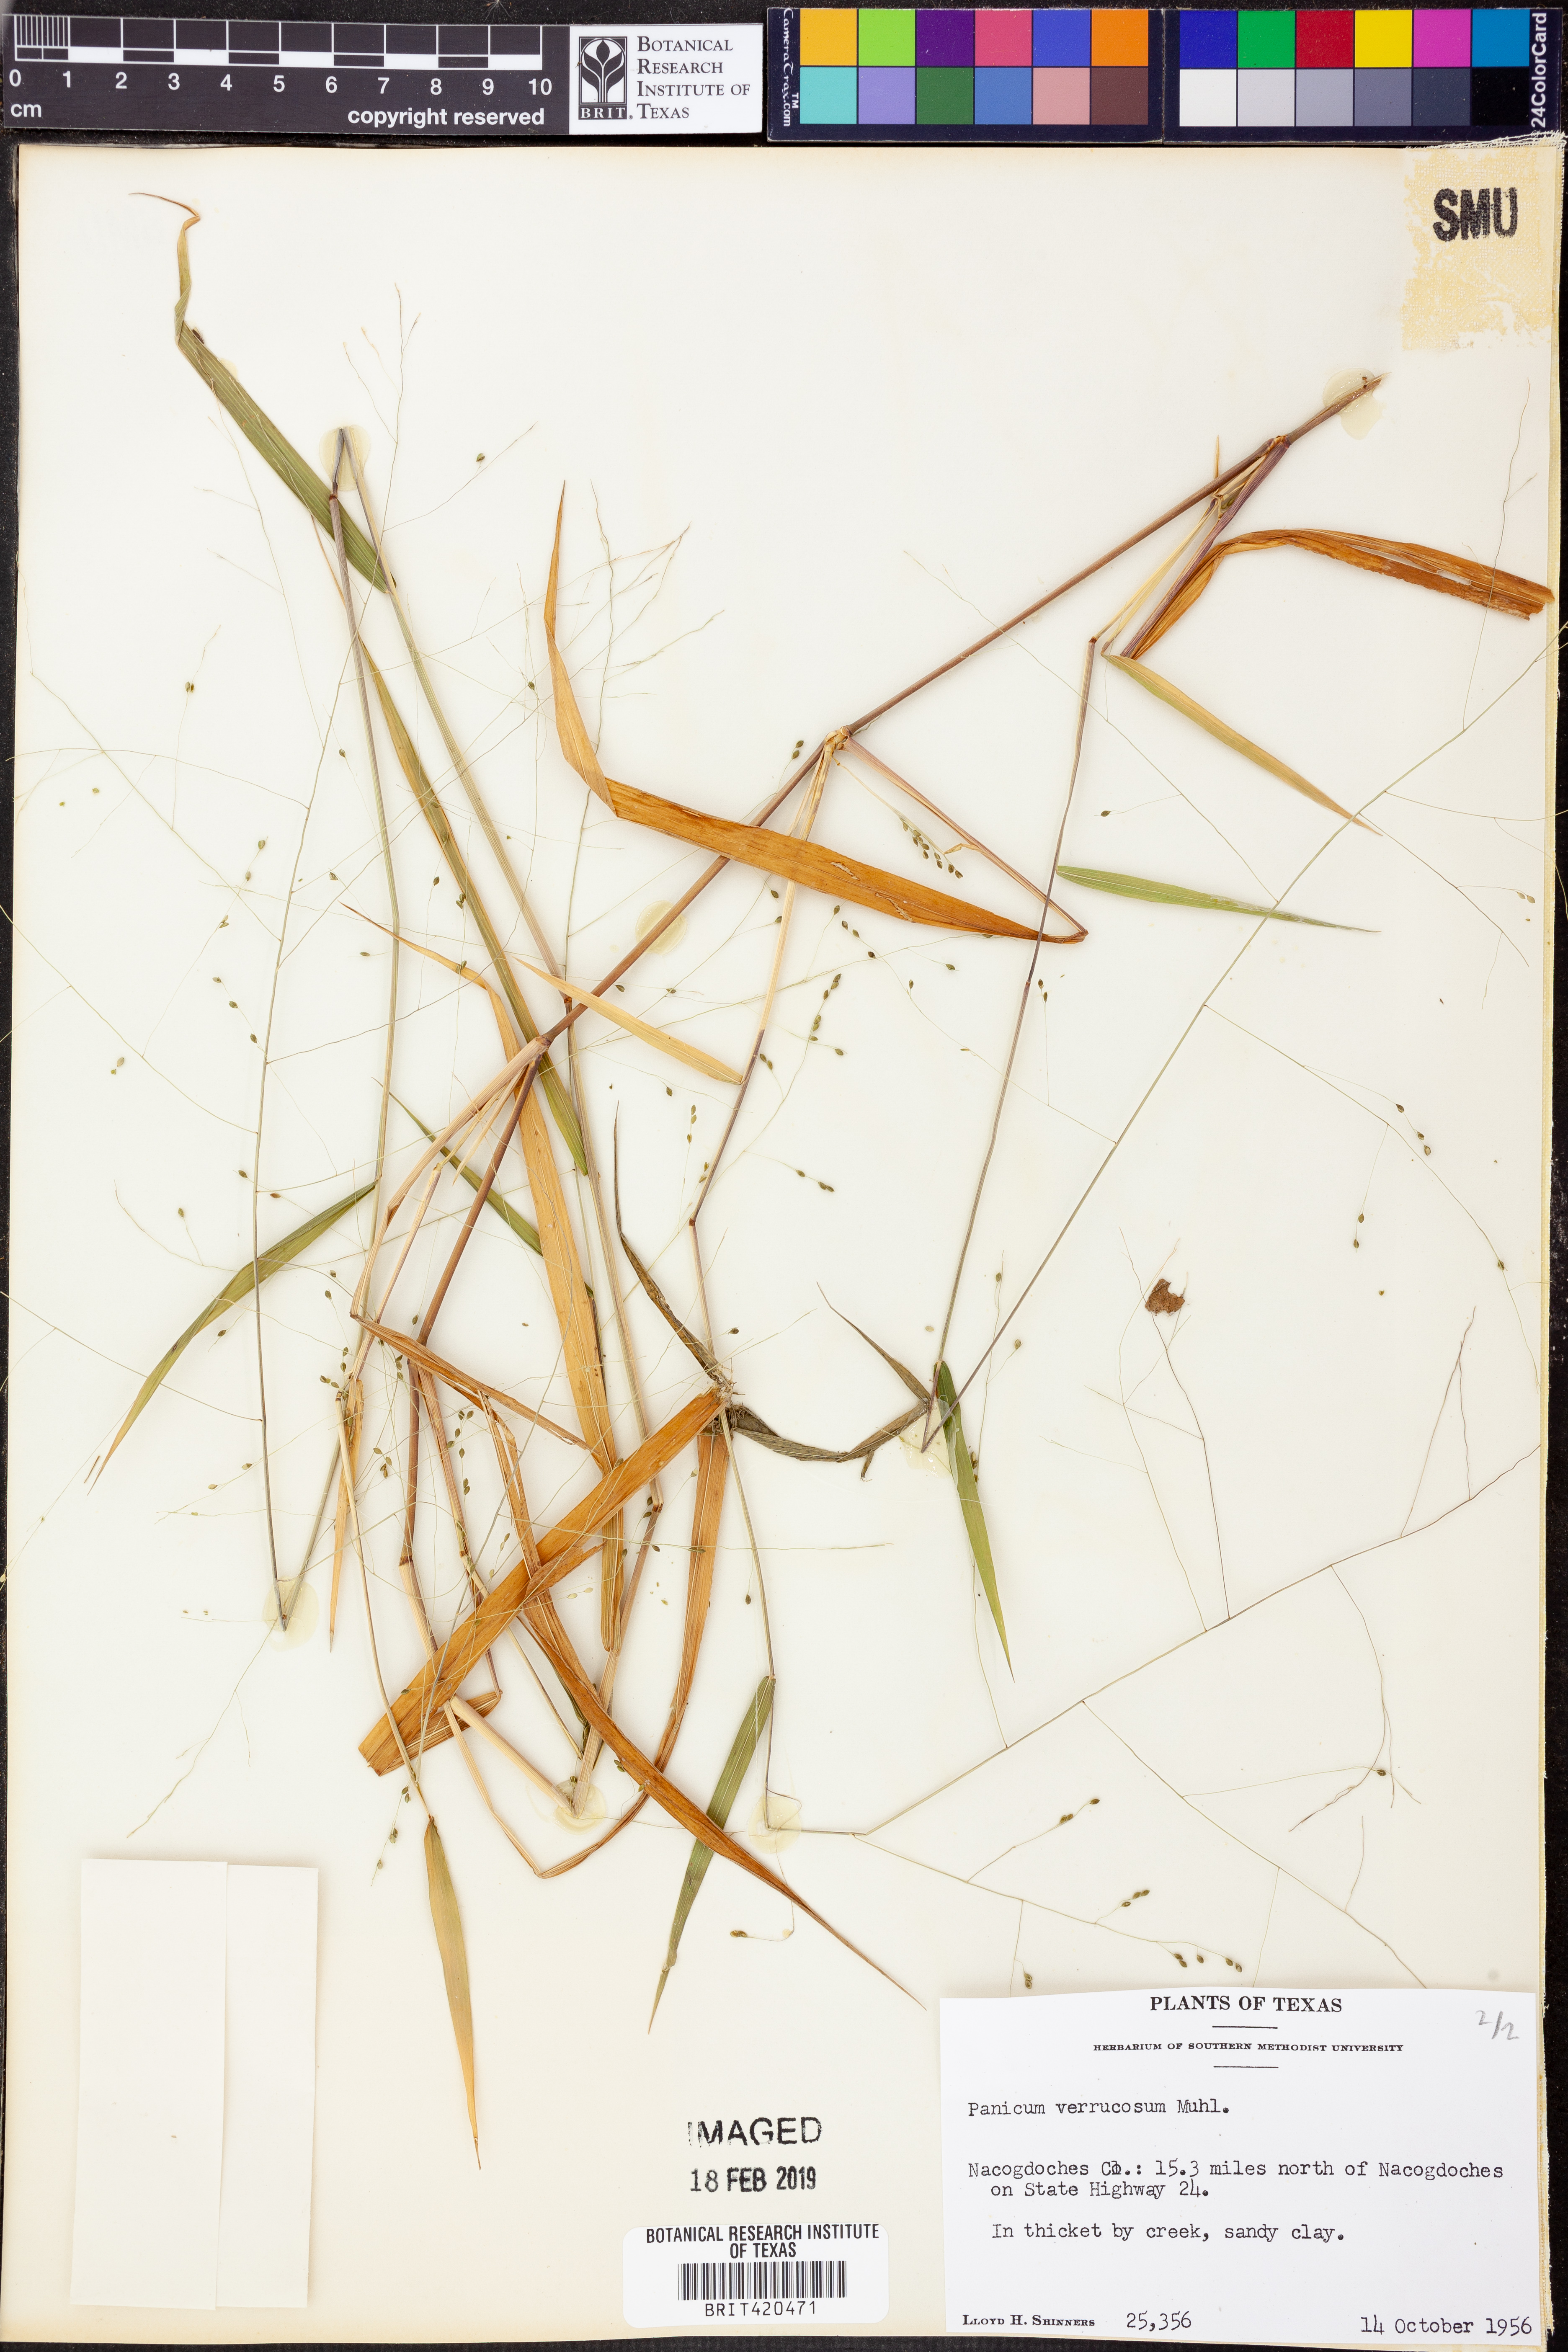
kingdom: Plantae
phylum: Tracheophyta
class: Liliopsida
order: Poales
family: Poaceae
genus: Kellochloa
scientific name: Kellochloa verrucosa
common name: Warty panic grass
